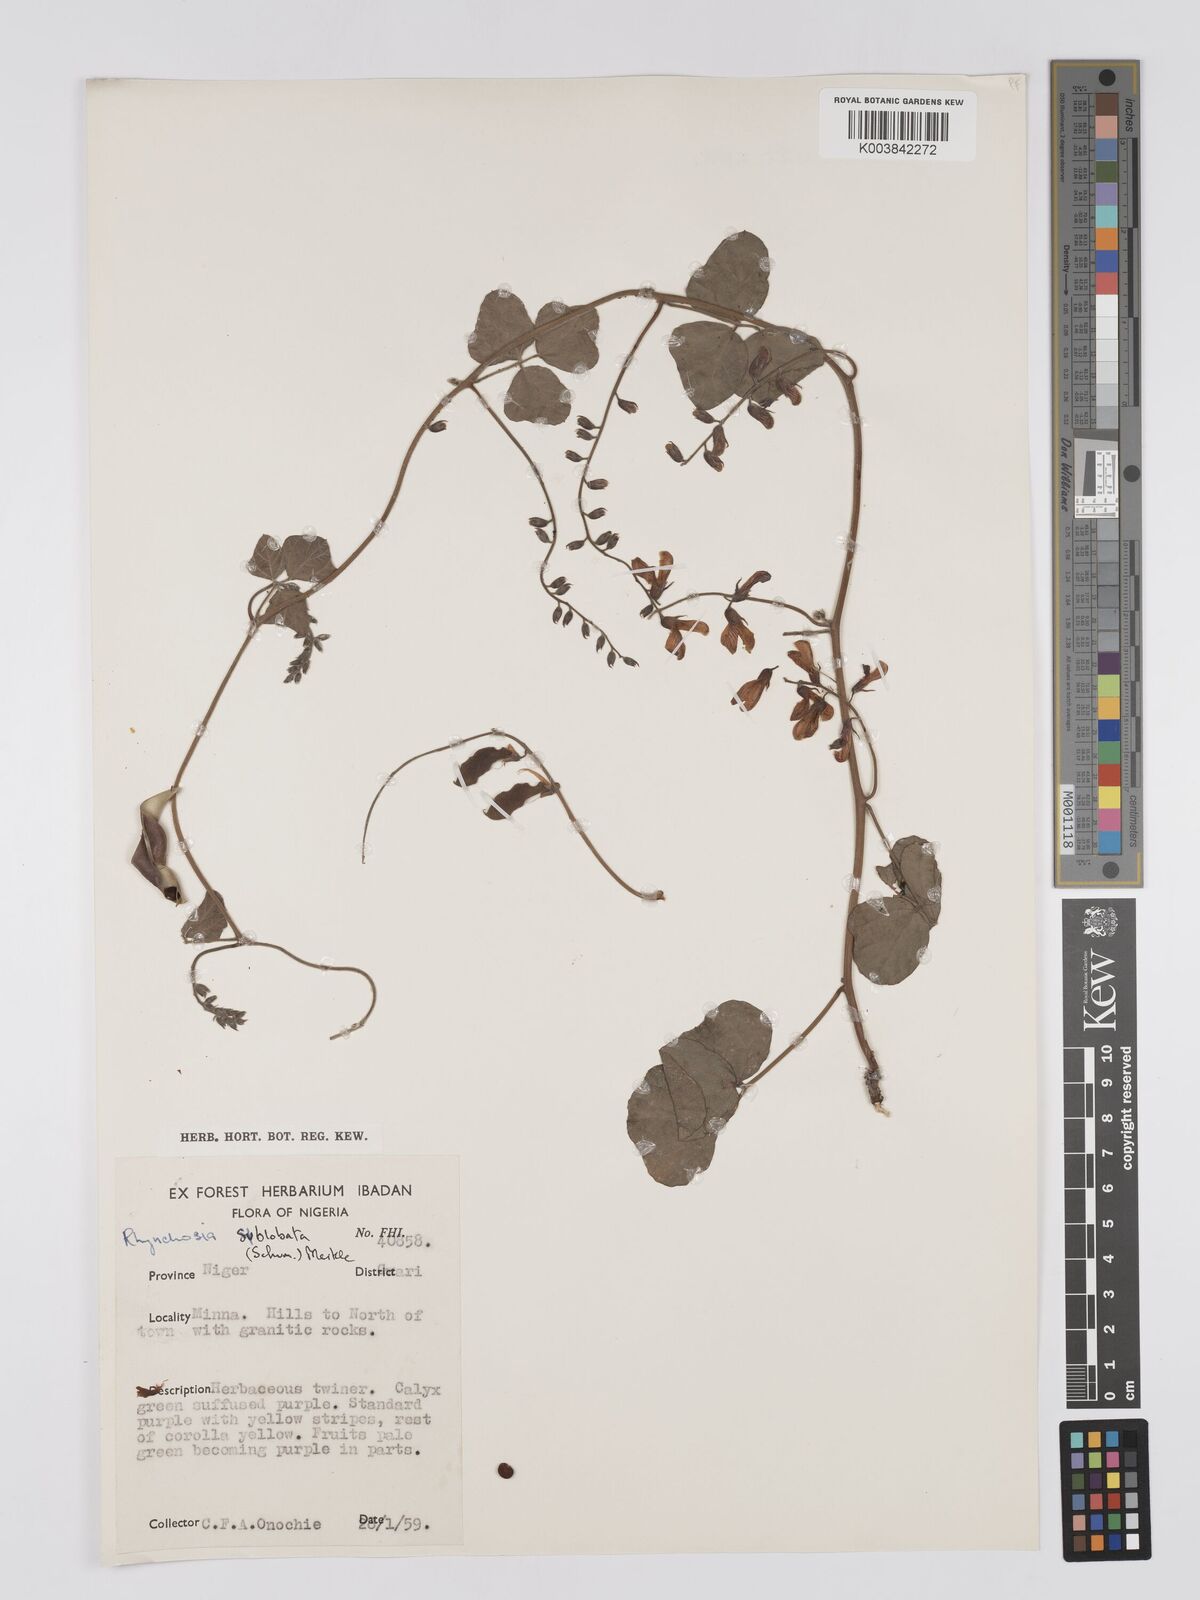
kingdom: Plantae
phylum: Tracheophyta
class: Magnoliopsida
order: Fabales
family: Fabaceae
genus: Rhynchosia
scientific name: Rhynchosia sublobata
